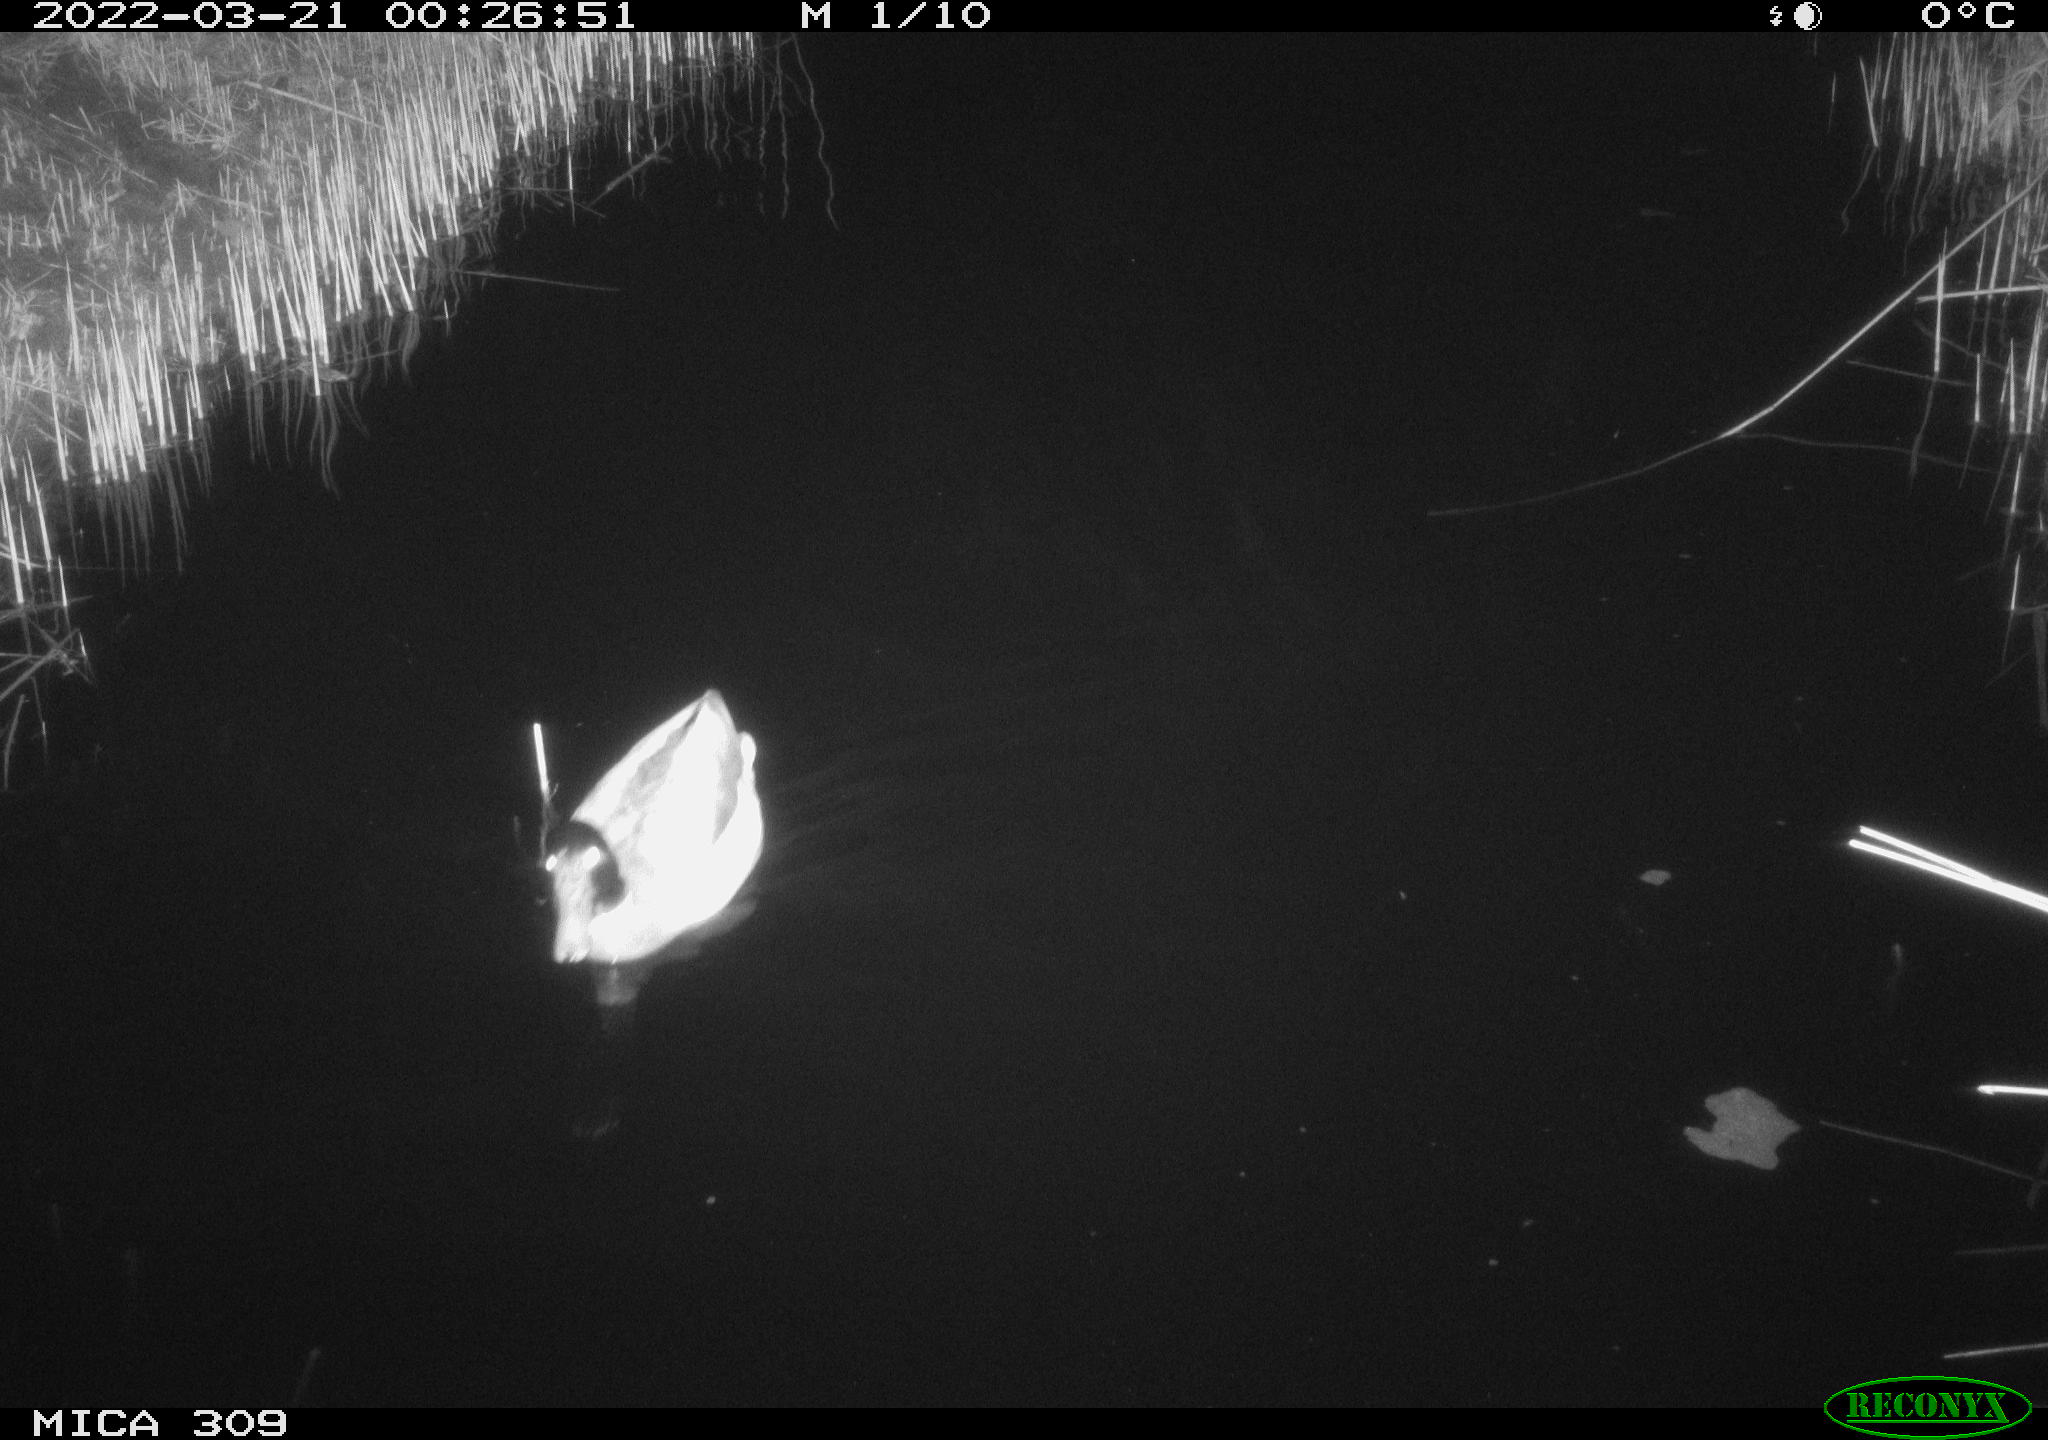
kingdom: Animalia
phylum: Chordata
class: Aves
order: Anseriformes
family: Anatidae
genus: Anas
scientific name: Anas platyrhynchos
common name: Mallard
